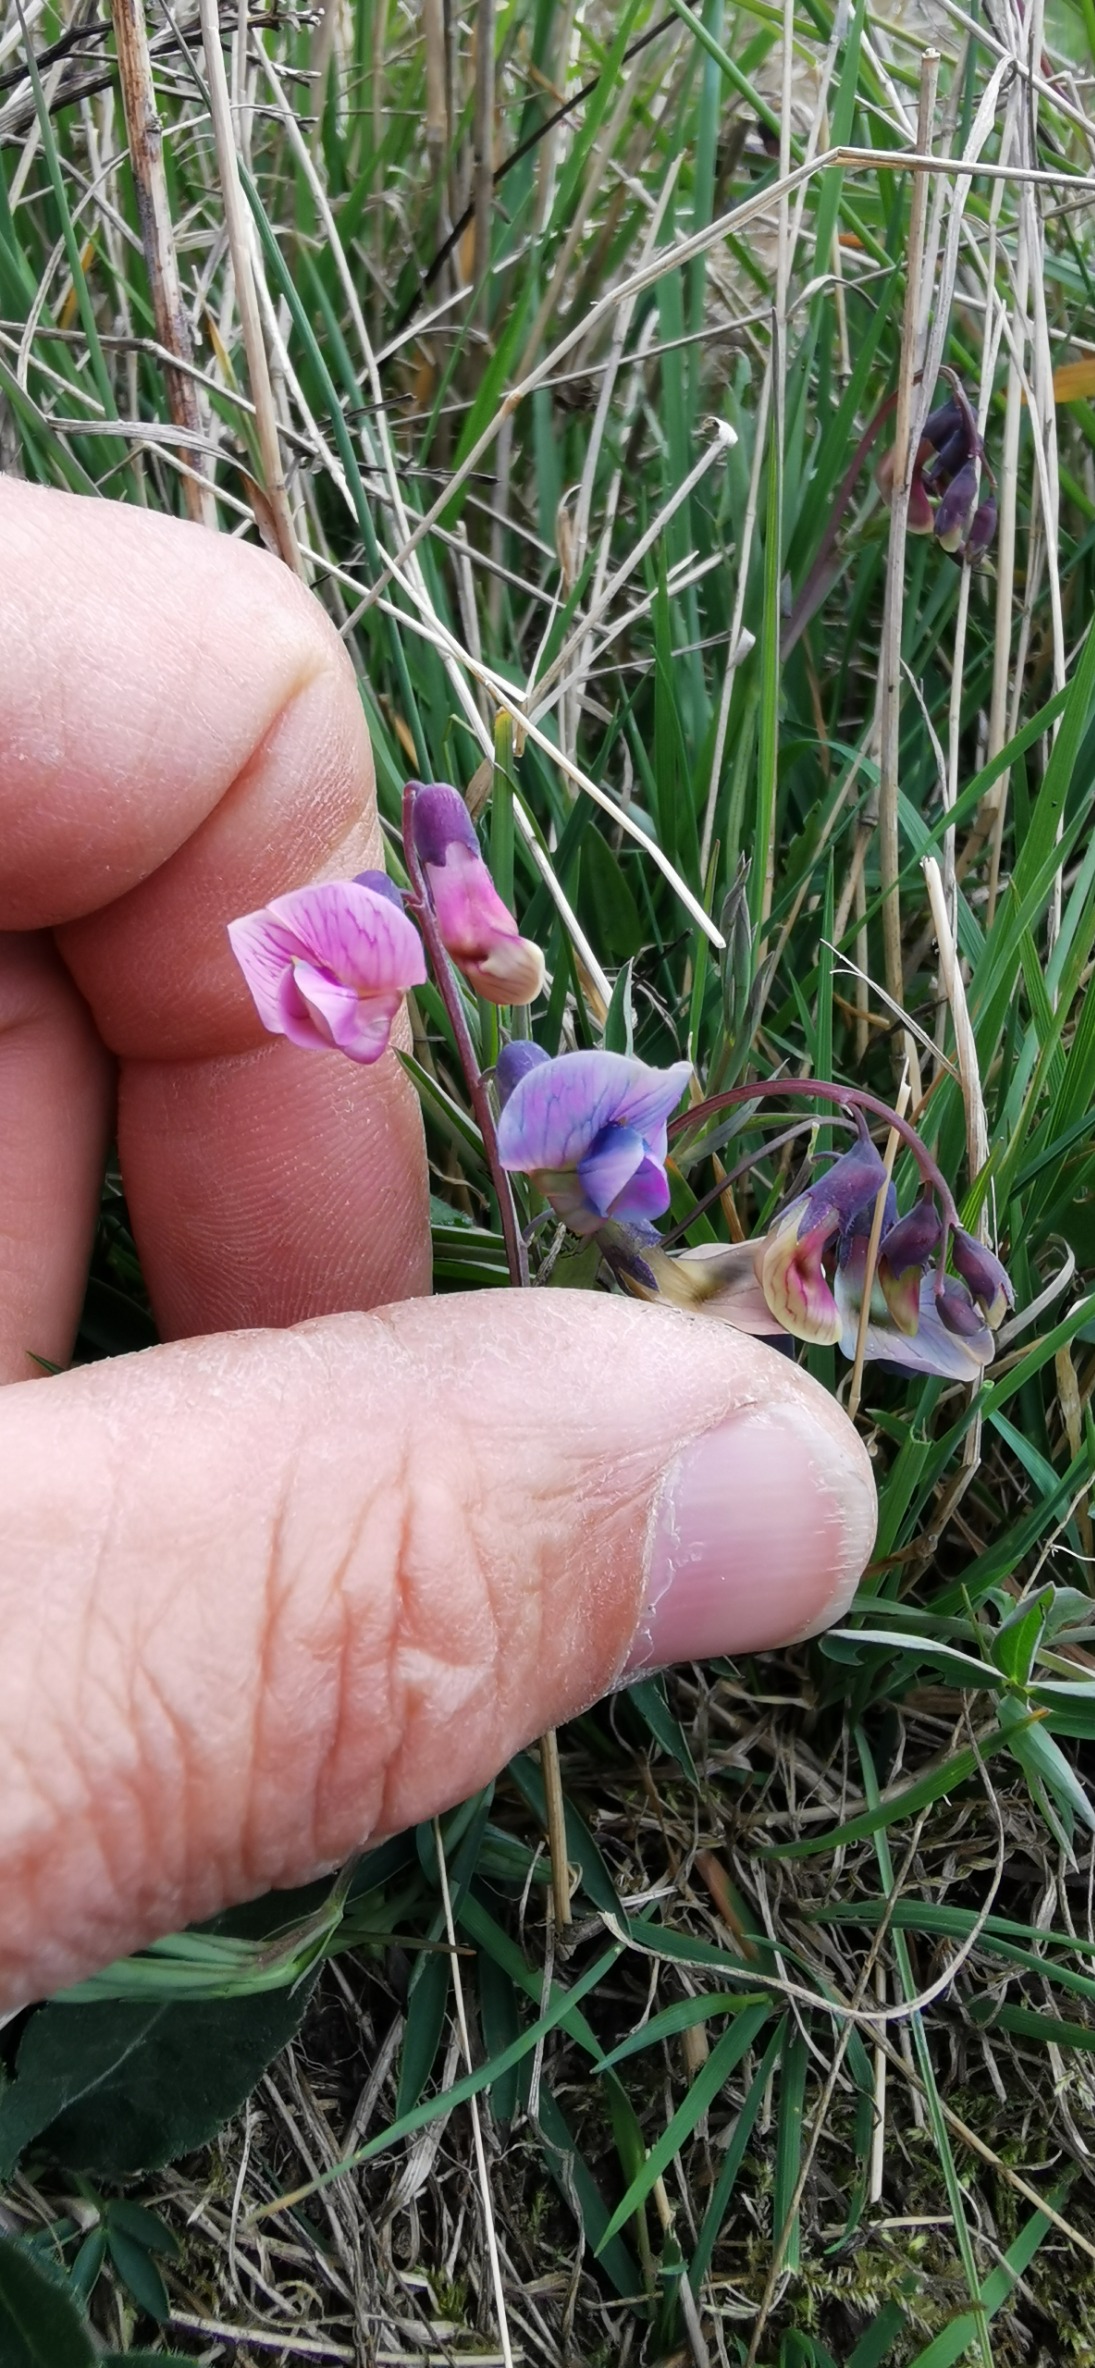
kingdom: Plantae
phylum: Tracheophyta
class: Magnoliopsida
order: Fabales
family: Fabaceae
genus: Lathyrus
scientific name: Lathyrus linifolius
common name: Krat-fladbælg
